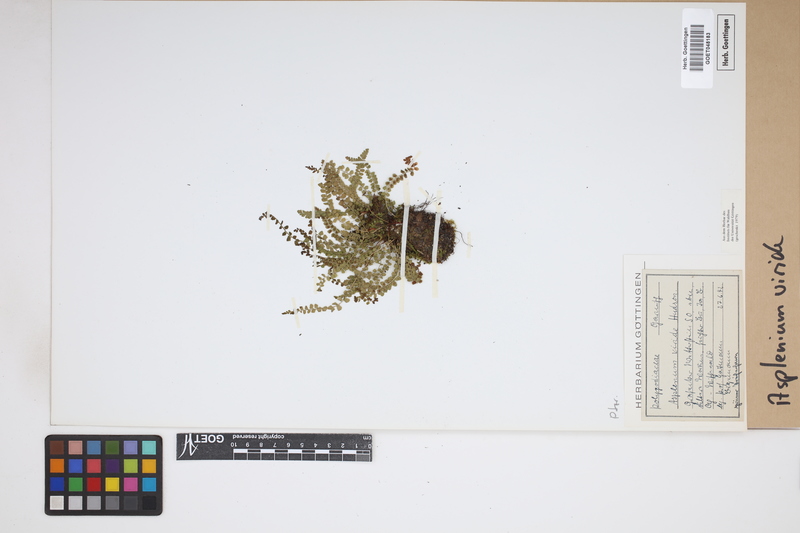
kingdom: Plantae
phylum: Tracheophyta
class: Polypodiopsida
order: Polypodiales
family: Aspleniaceae
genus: Asplenium
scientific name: Asplenium viride
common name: Green spleenwort
